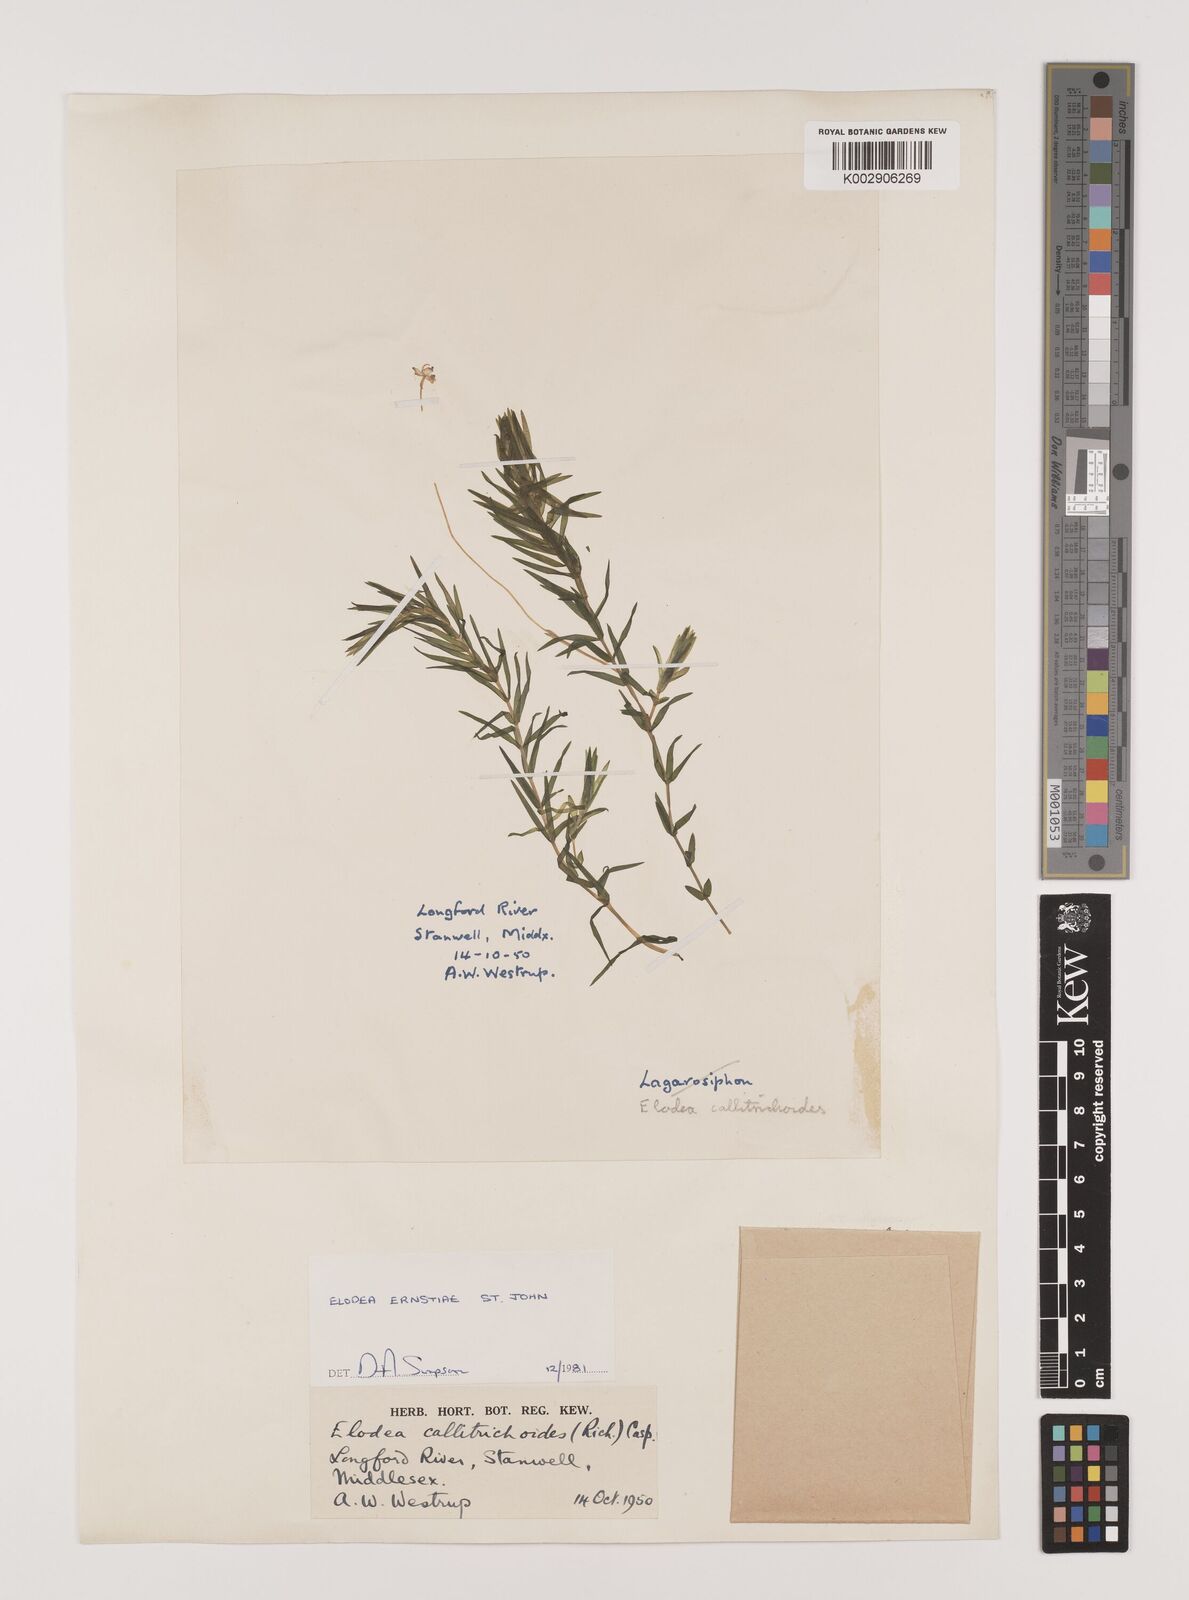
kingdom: Plantae
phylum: Tracheophyta
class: Liliopsida
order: Alismatales
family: Hydrocharitaceae
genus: Elodea
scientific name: Elodea callitrichoides
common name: South american waterweed
